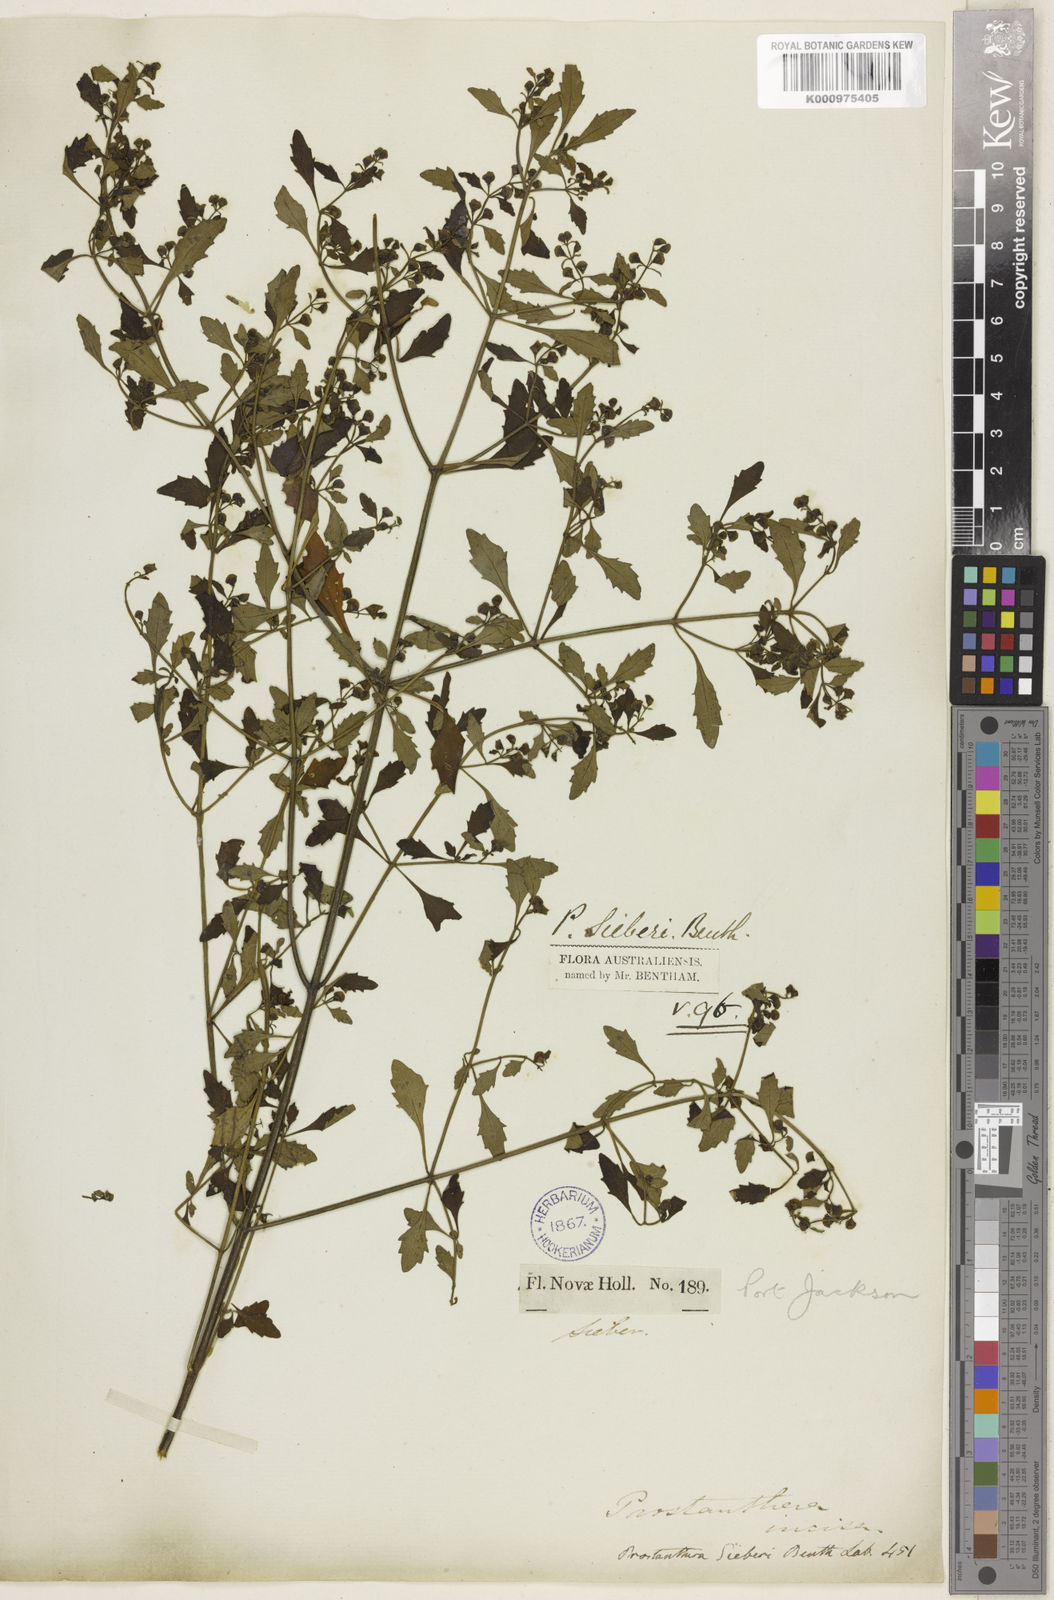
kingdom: Plantae
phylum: Tracheophyta
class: Magnoliopsida
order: Lamiales
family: Lamiaceae
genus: Prostanthera
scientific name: Prostanthera sieberi
